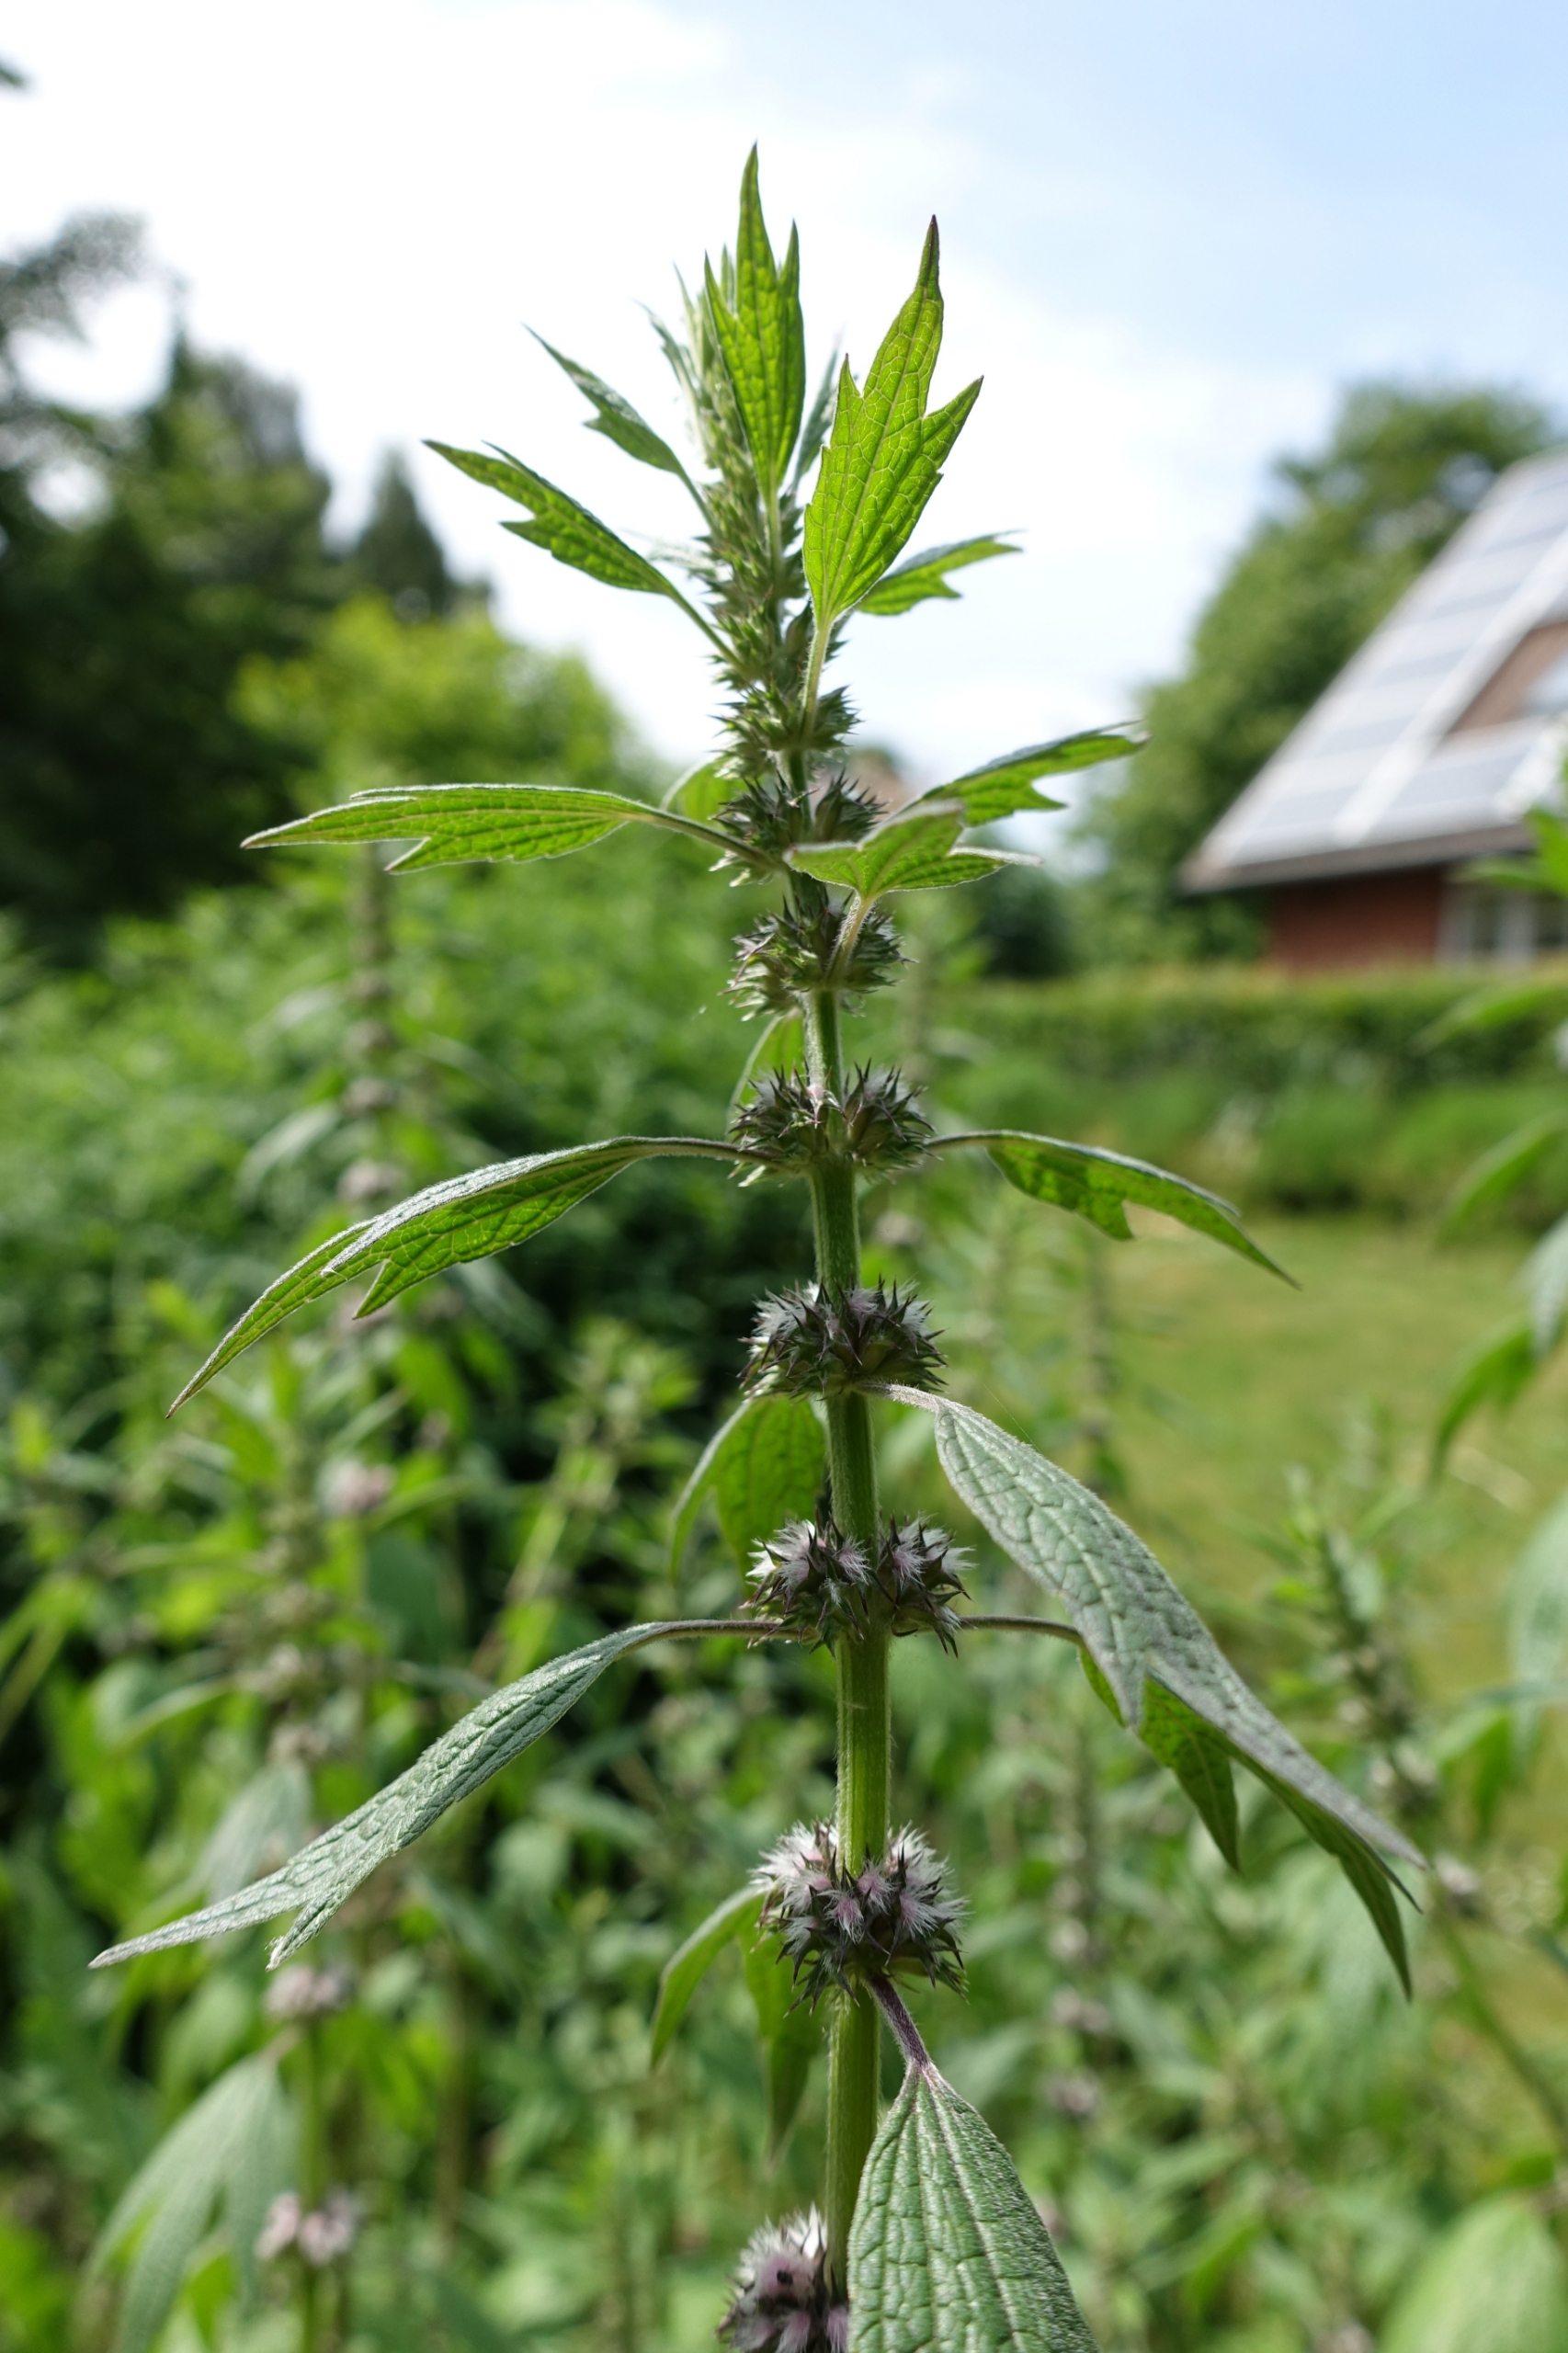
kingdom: Plantae
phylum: Tracheophyta
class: Magnoliopsida
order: Lamiales
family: Lamiaceae
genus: Leonurus
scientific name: Leonurus cardiaca
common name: Hjertespand
